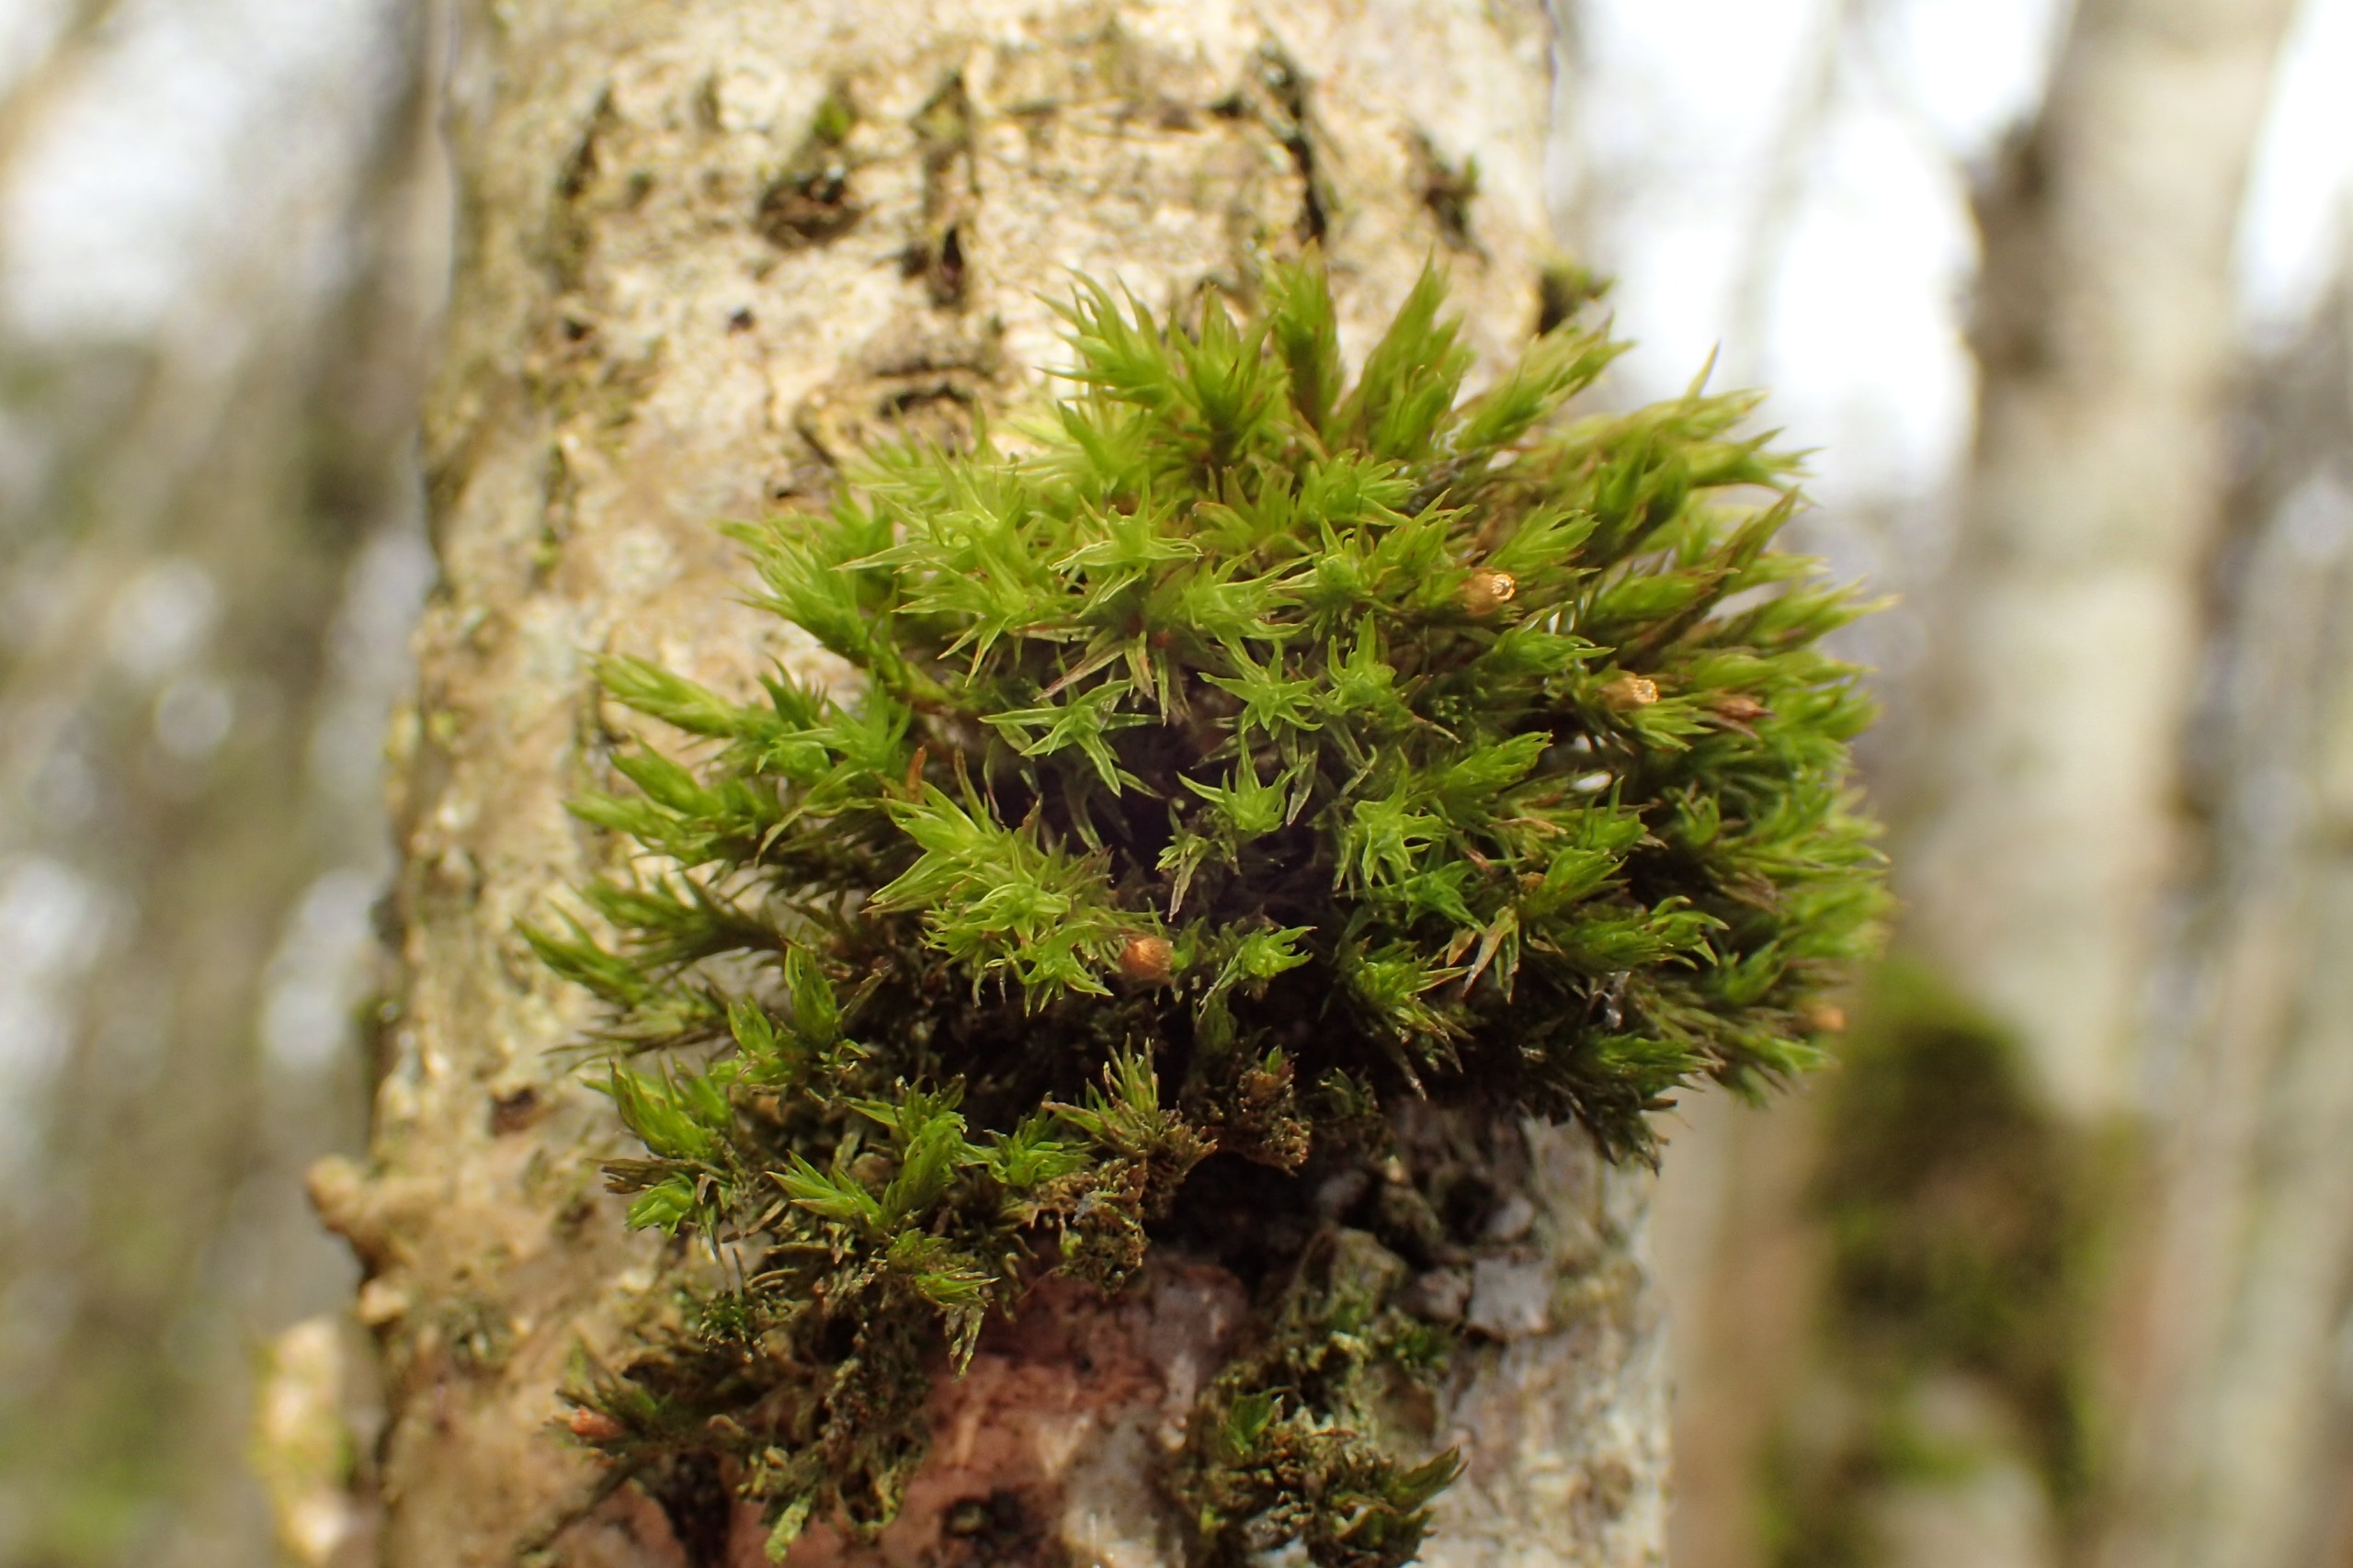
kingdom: Plantae
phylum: Bryophyta
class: Bryopsida
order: Orthotrichales
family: Orthotrichaceae
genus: Lewinskya
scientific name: Lewinskya striata
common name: Glatkapslet furehætte
